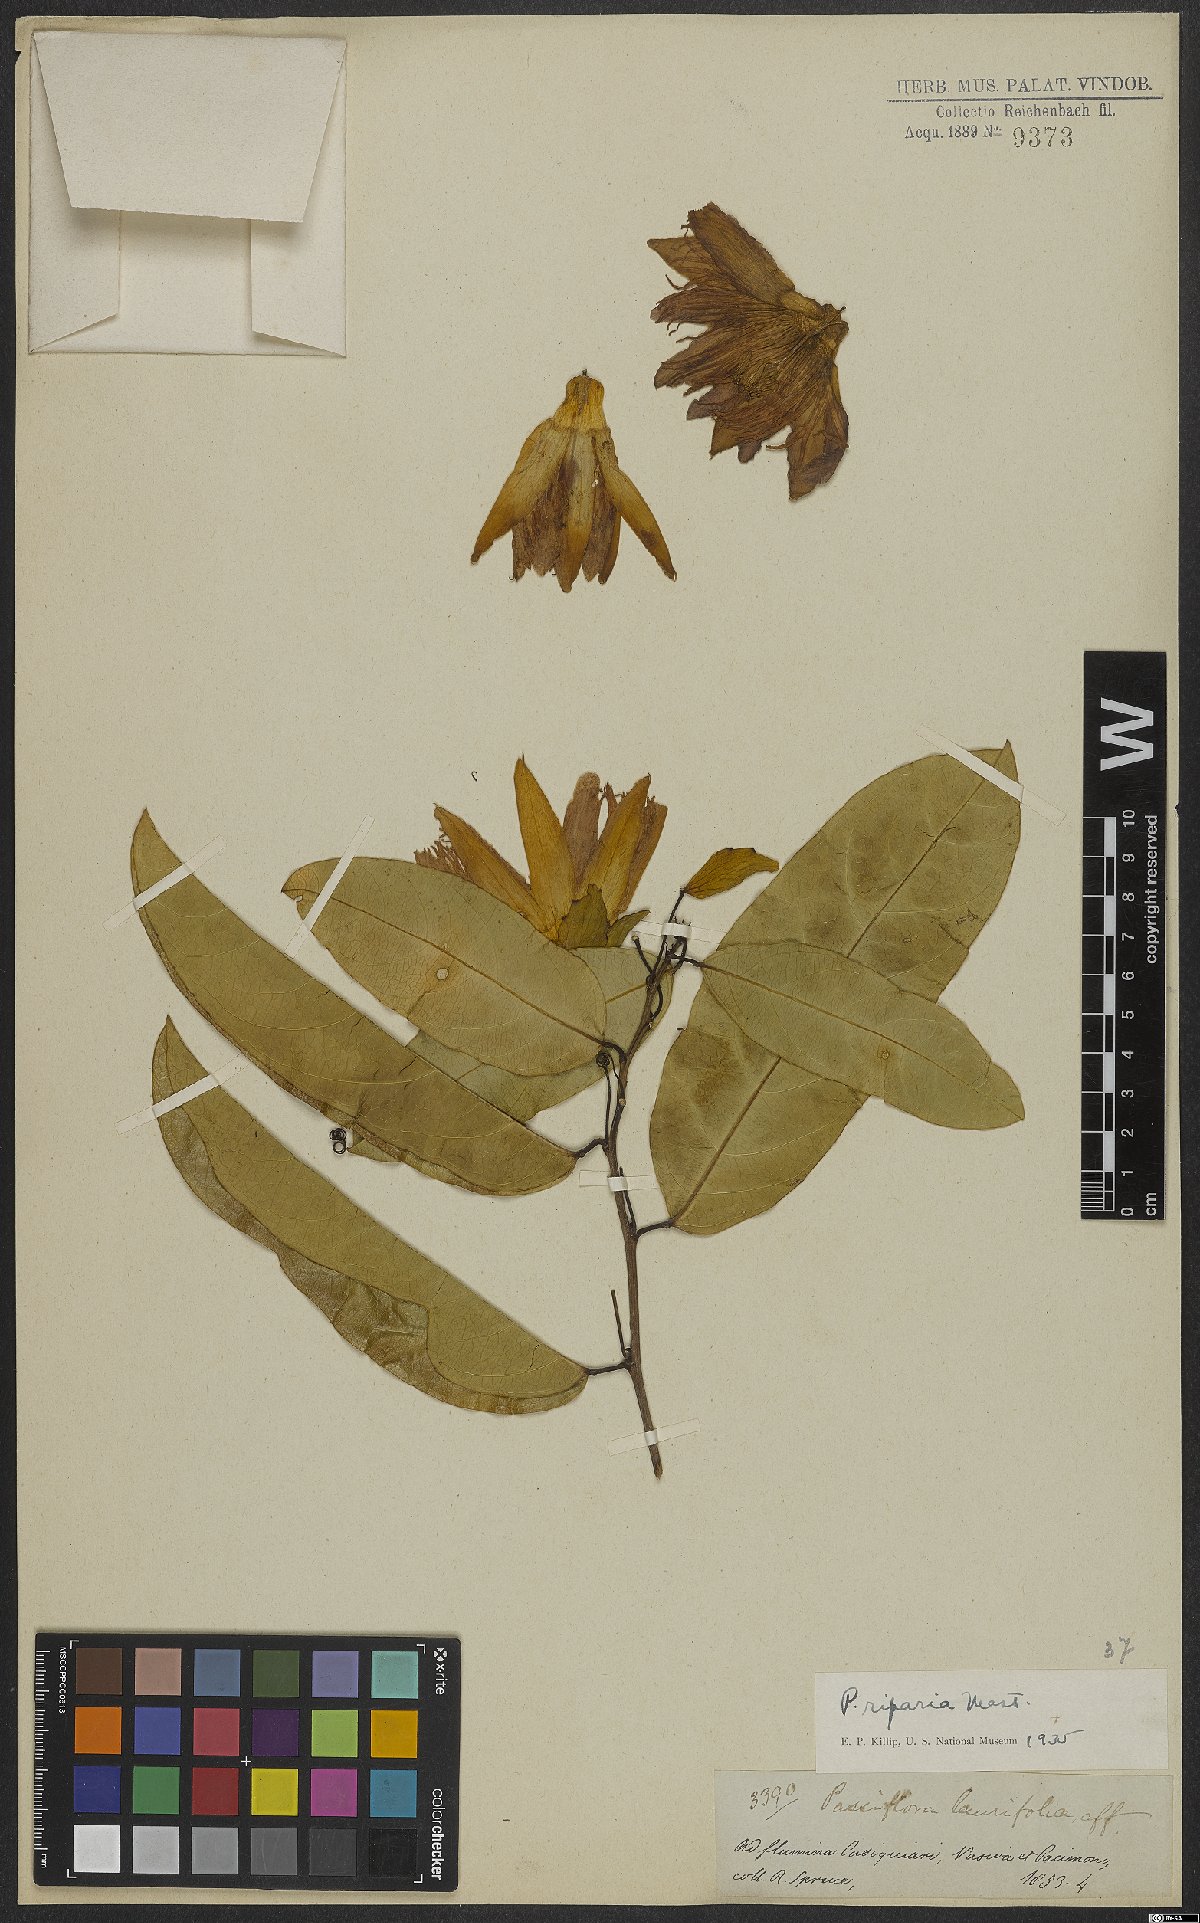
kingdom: Plantae
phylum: Tracheophyta
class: Magnoliopsida
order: Malpighiales
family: Passifloraceae
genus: Passiflora
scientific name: Passiflora riparia
